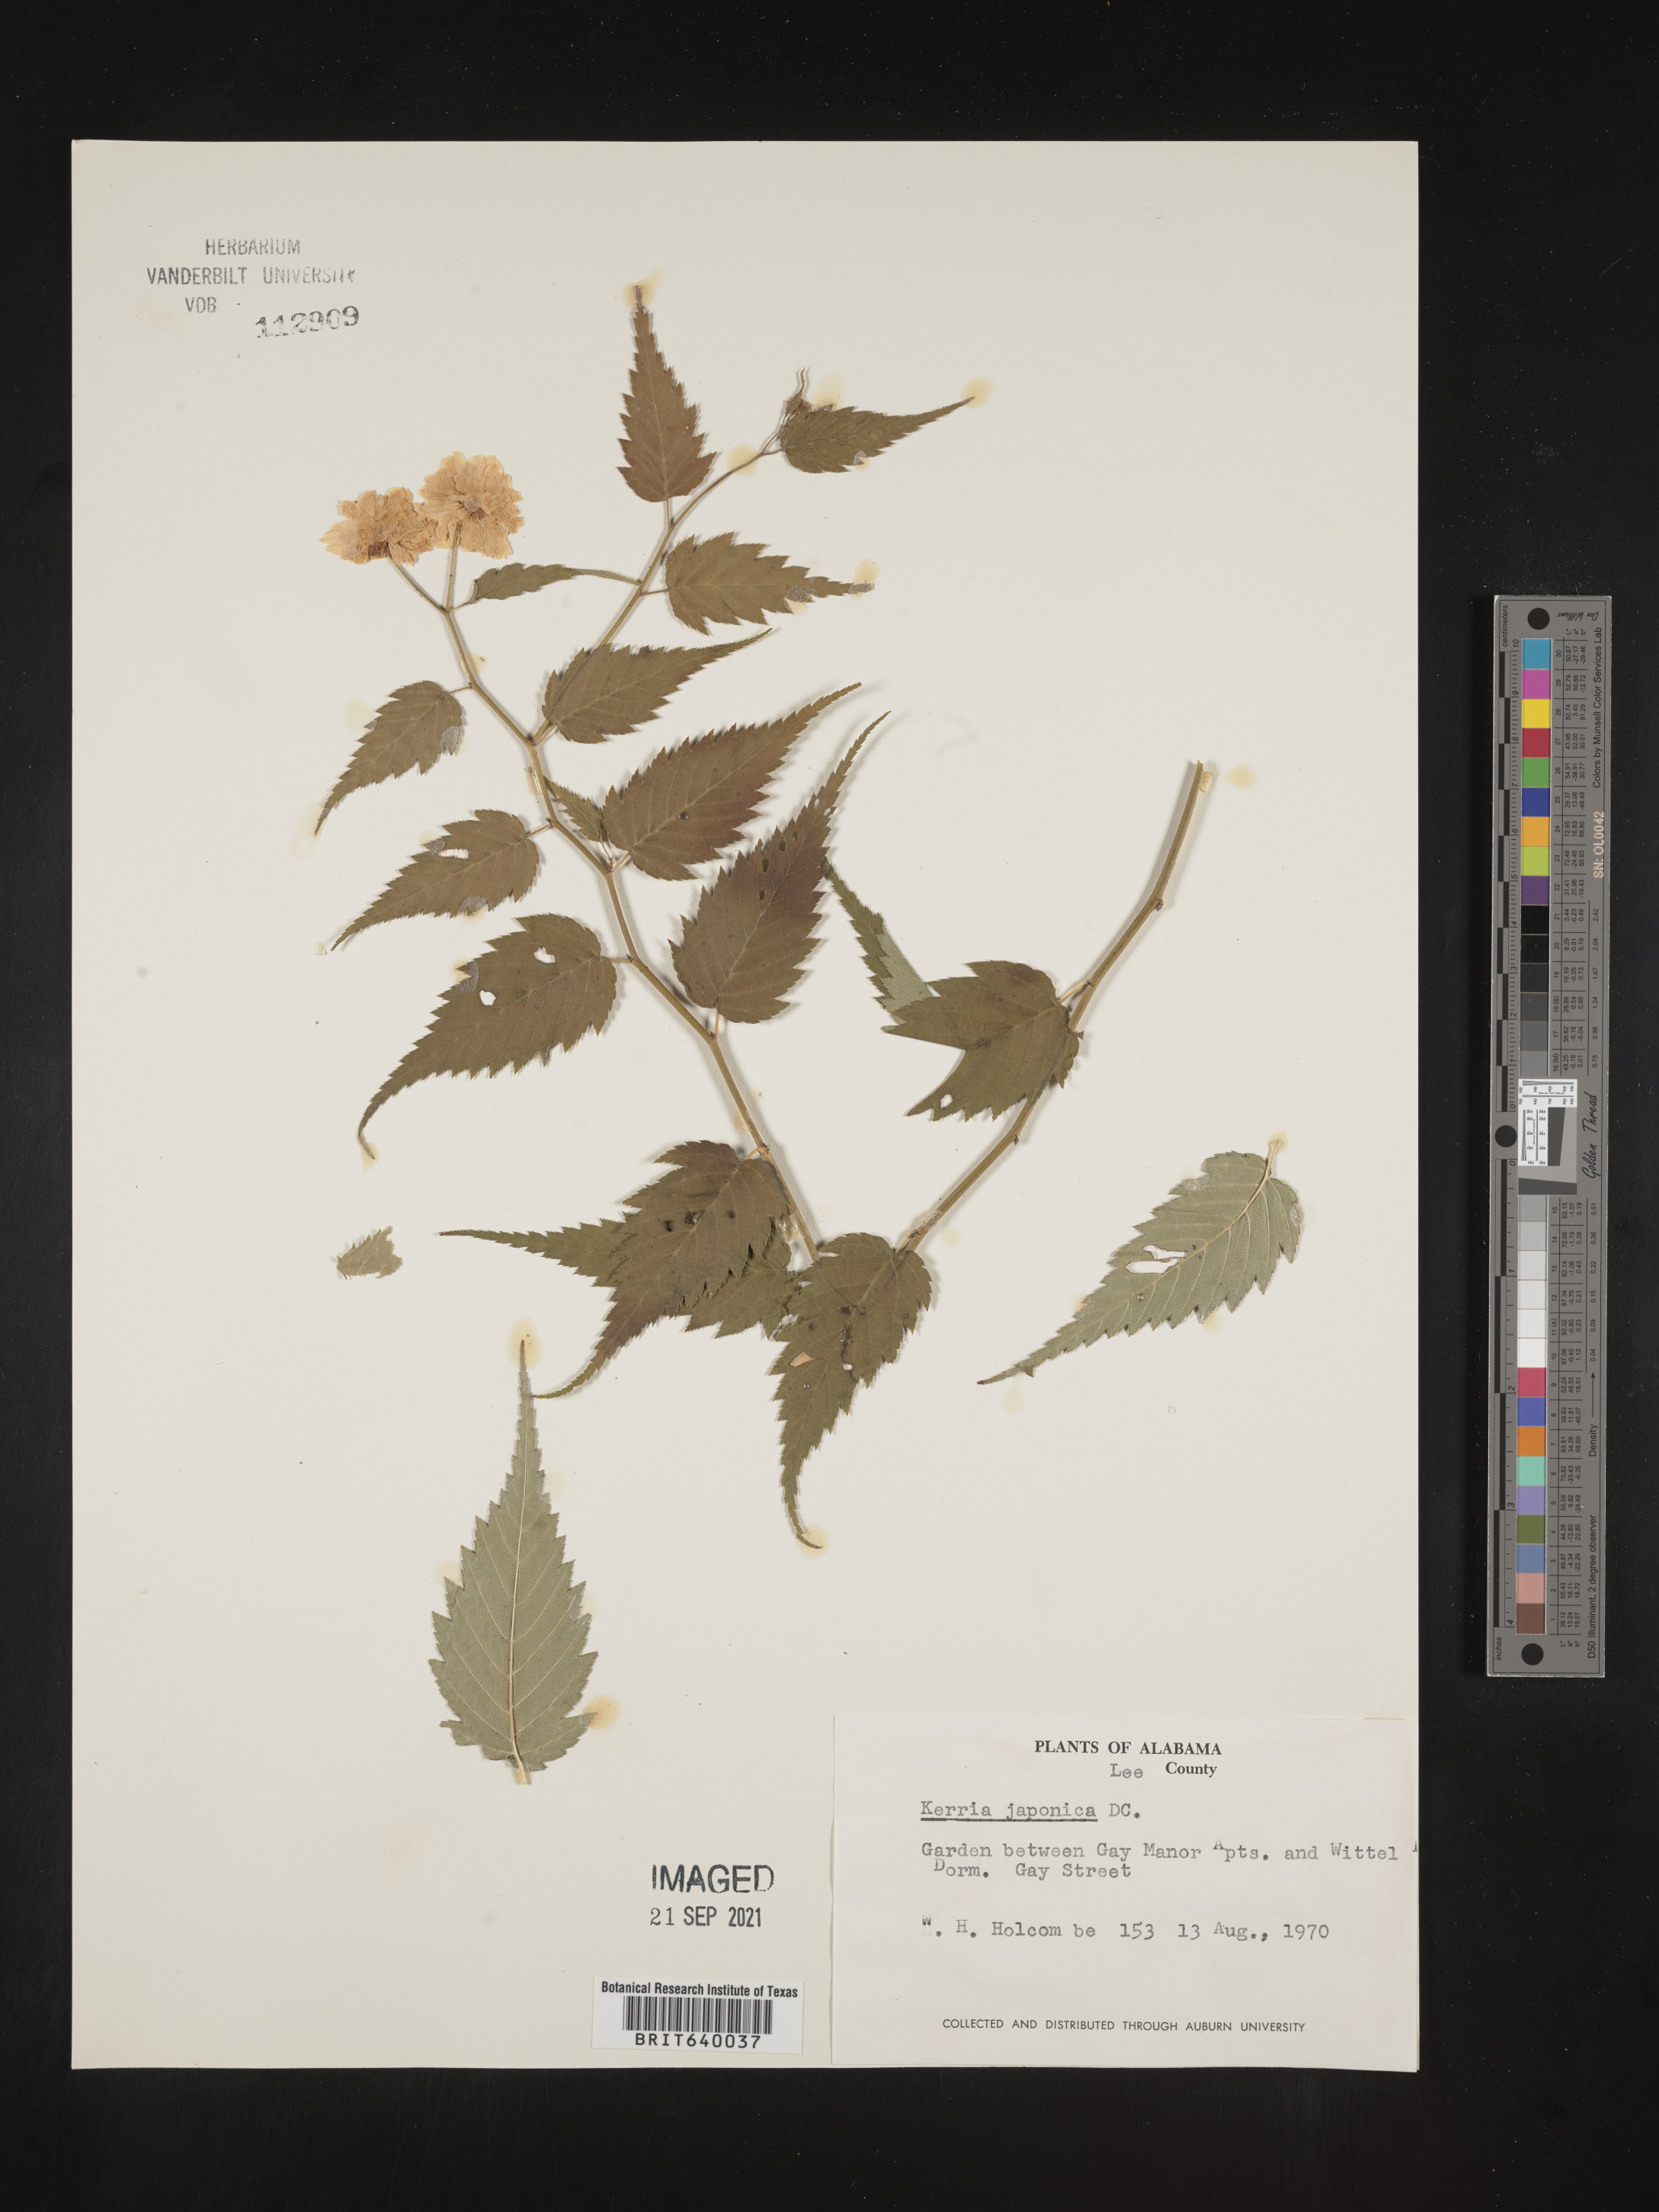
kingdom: Plantae
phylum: Tracheophyta
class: Magnoliopsida
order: Rosales
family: Rosaceae
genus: Kerria
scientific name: Kerria
